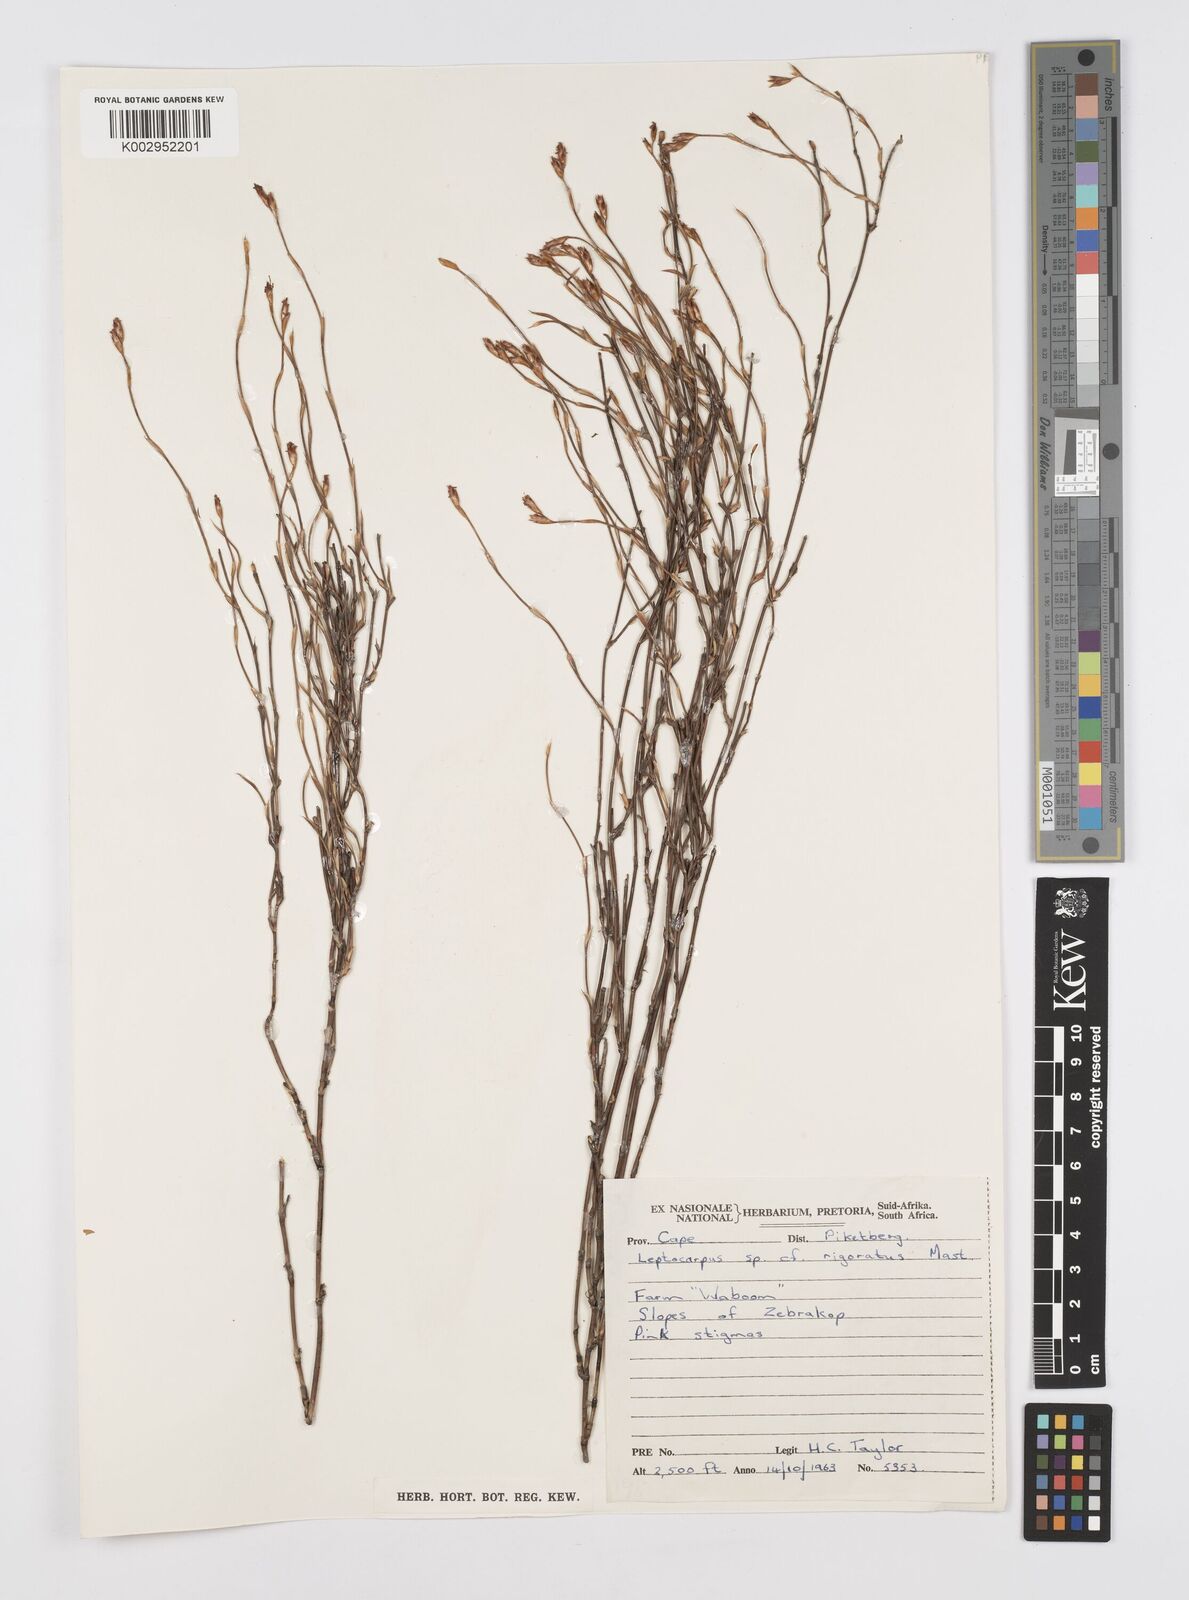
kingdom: Plantae
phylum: Tracheophyta
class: Liliopsida
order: Poales
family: Restionaceae
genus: Restio
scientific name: Restio rigoratus
